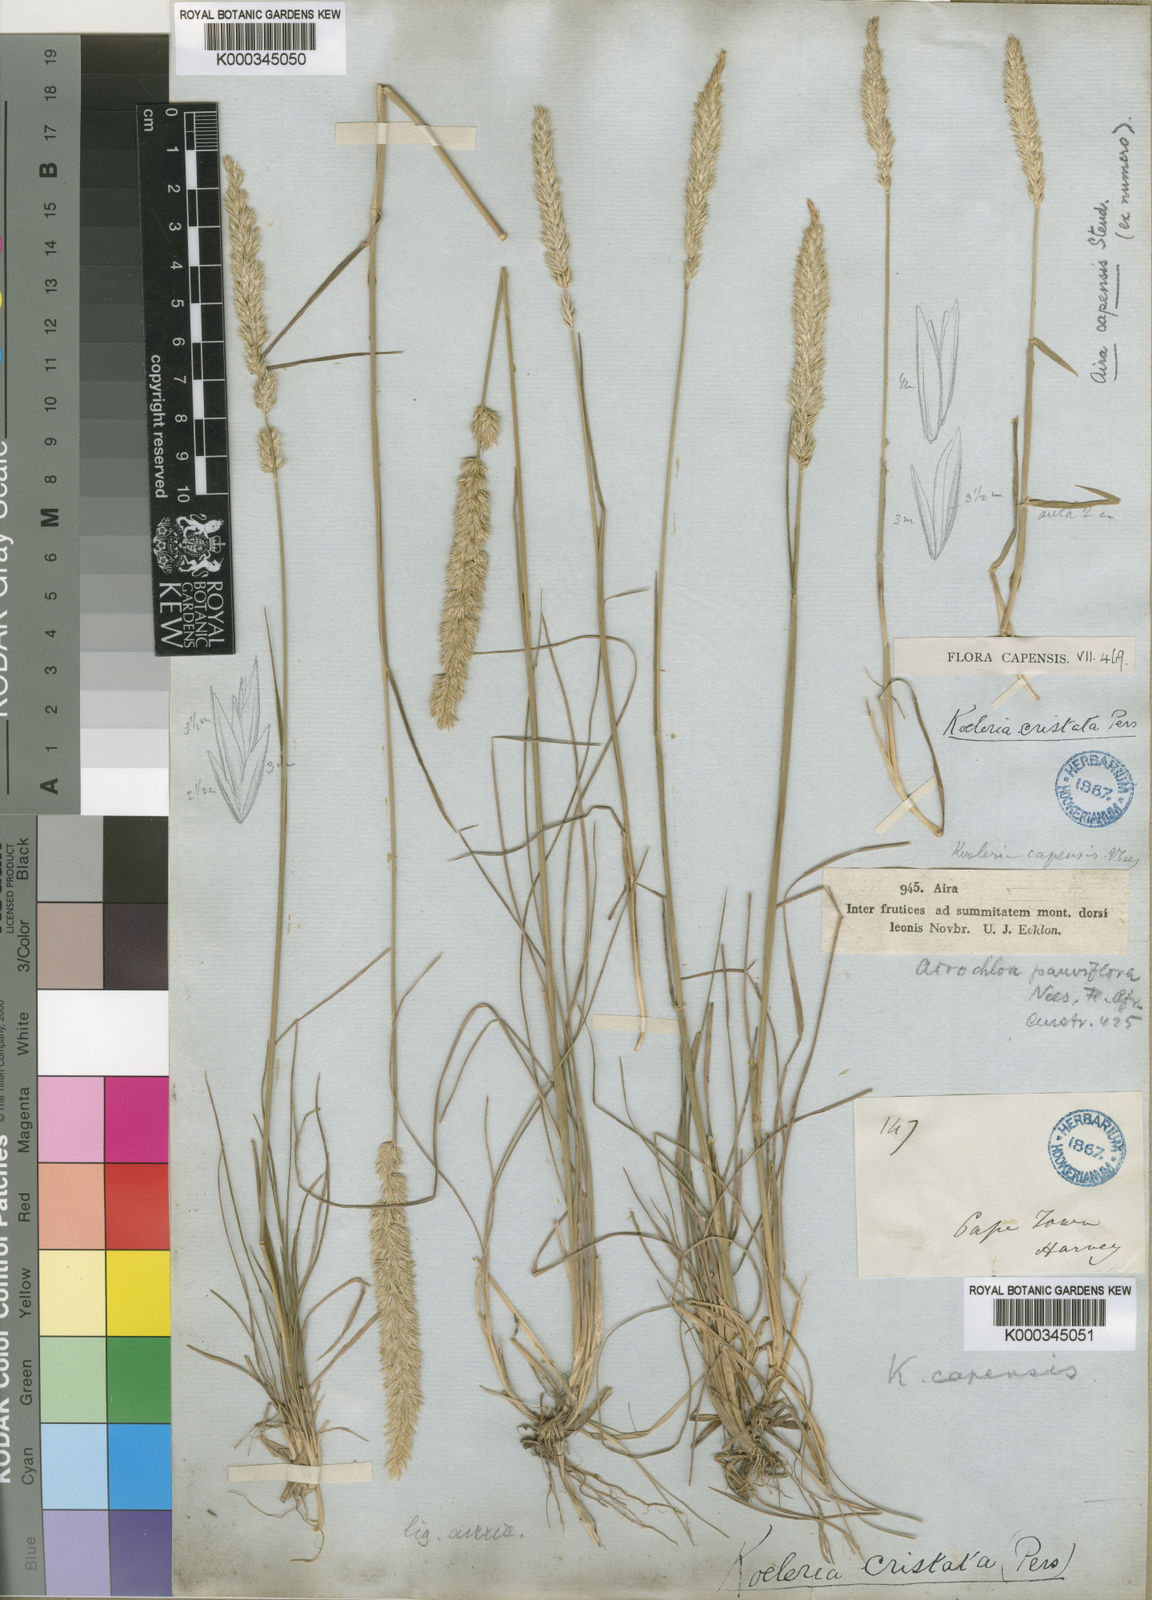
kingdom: Plantae
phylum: Tracheophyta
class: Liliopsida
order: Poales
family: Poaceae
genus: Koeleria
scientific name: Koeleria capensis
